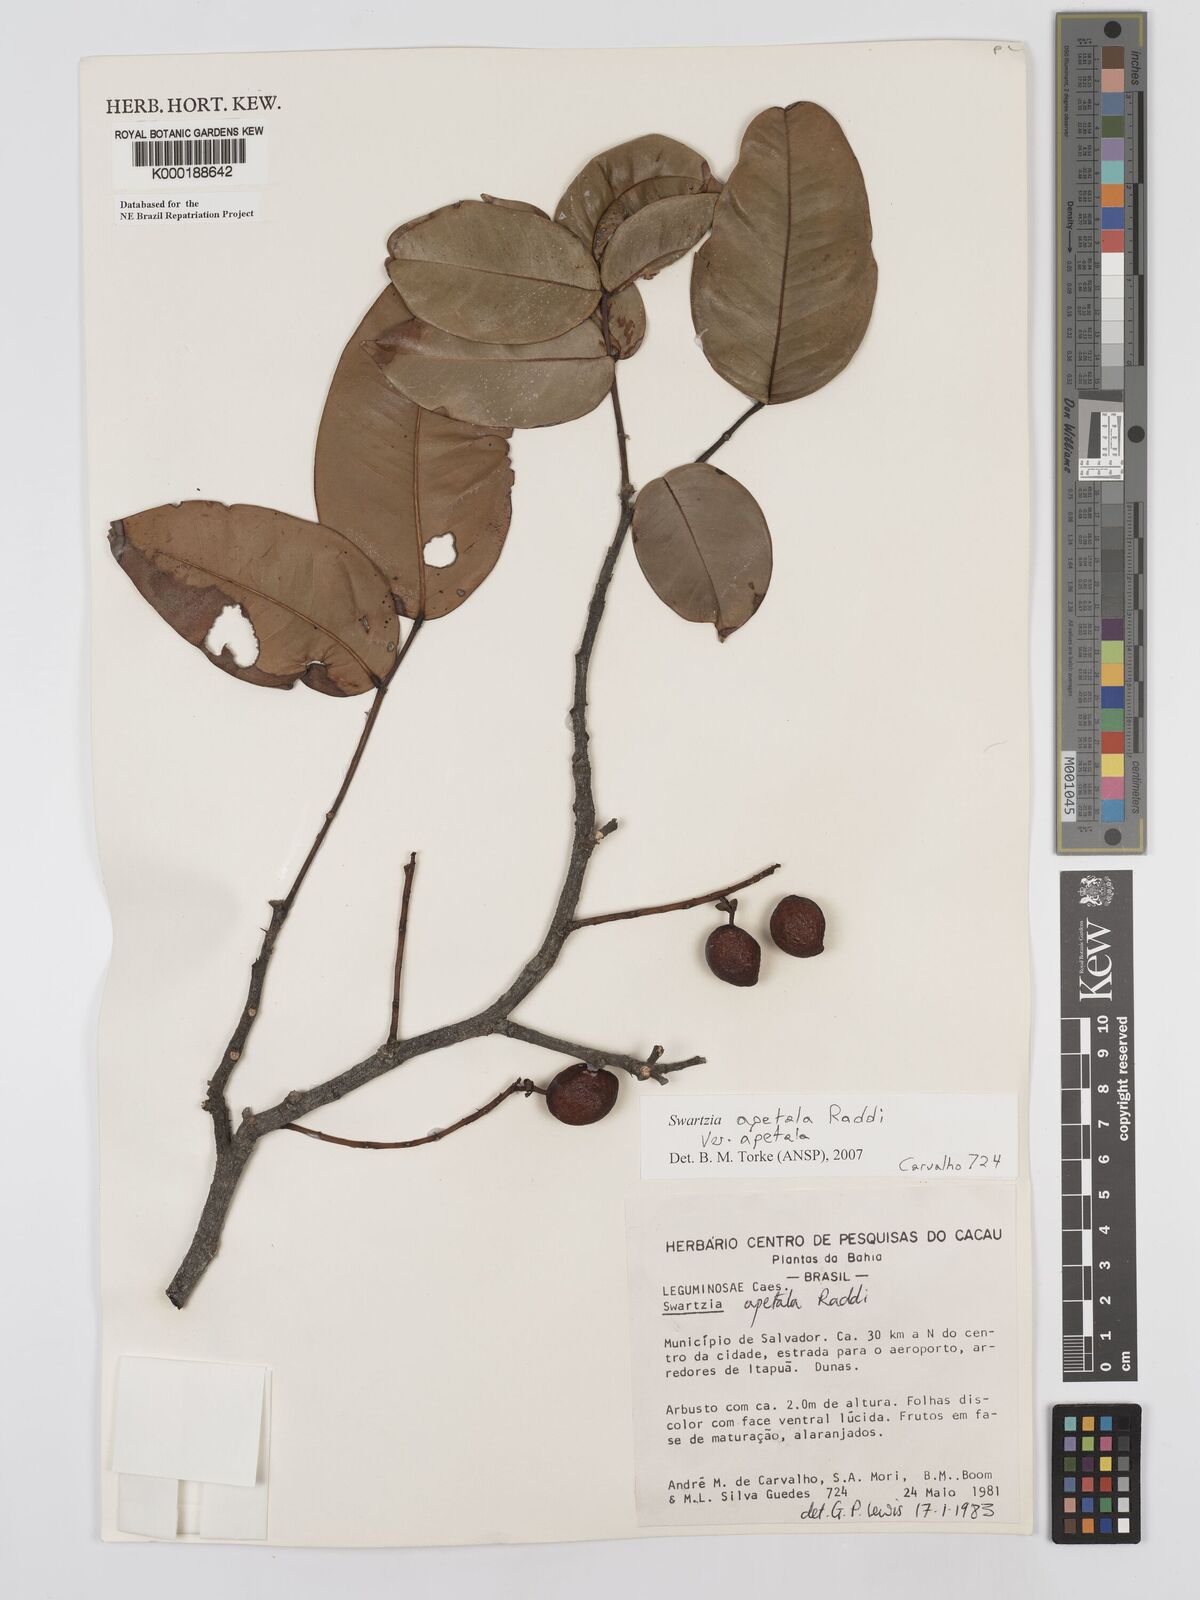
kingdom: Plantae
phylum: Tracheophyta
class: Magnoliopsida
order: Fabales
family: Fabaceae
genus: Swartzia
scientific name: Swartzia apetala
